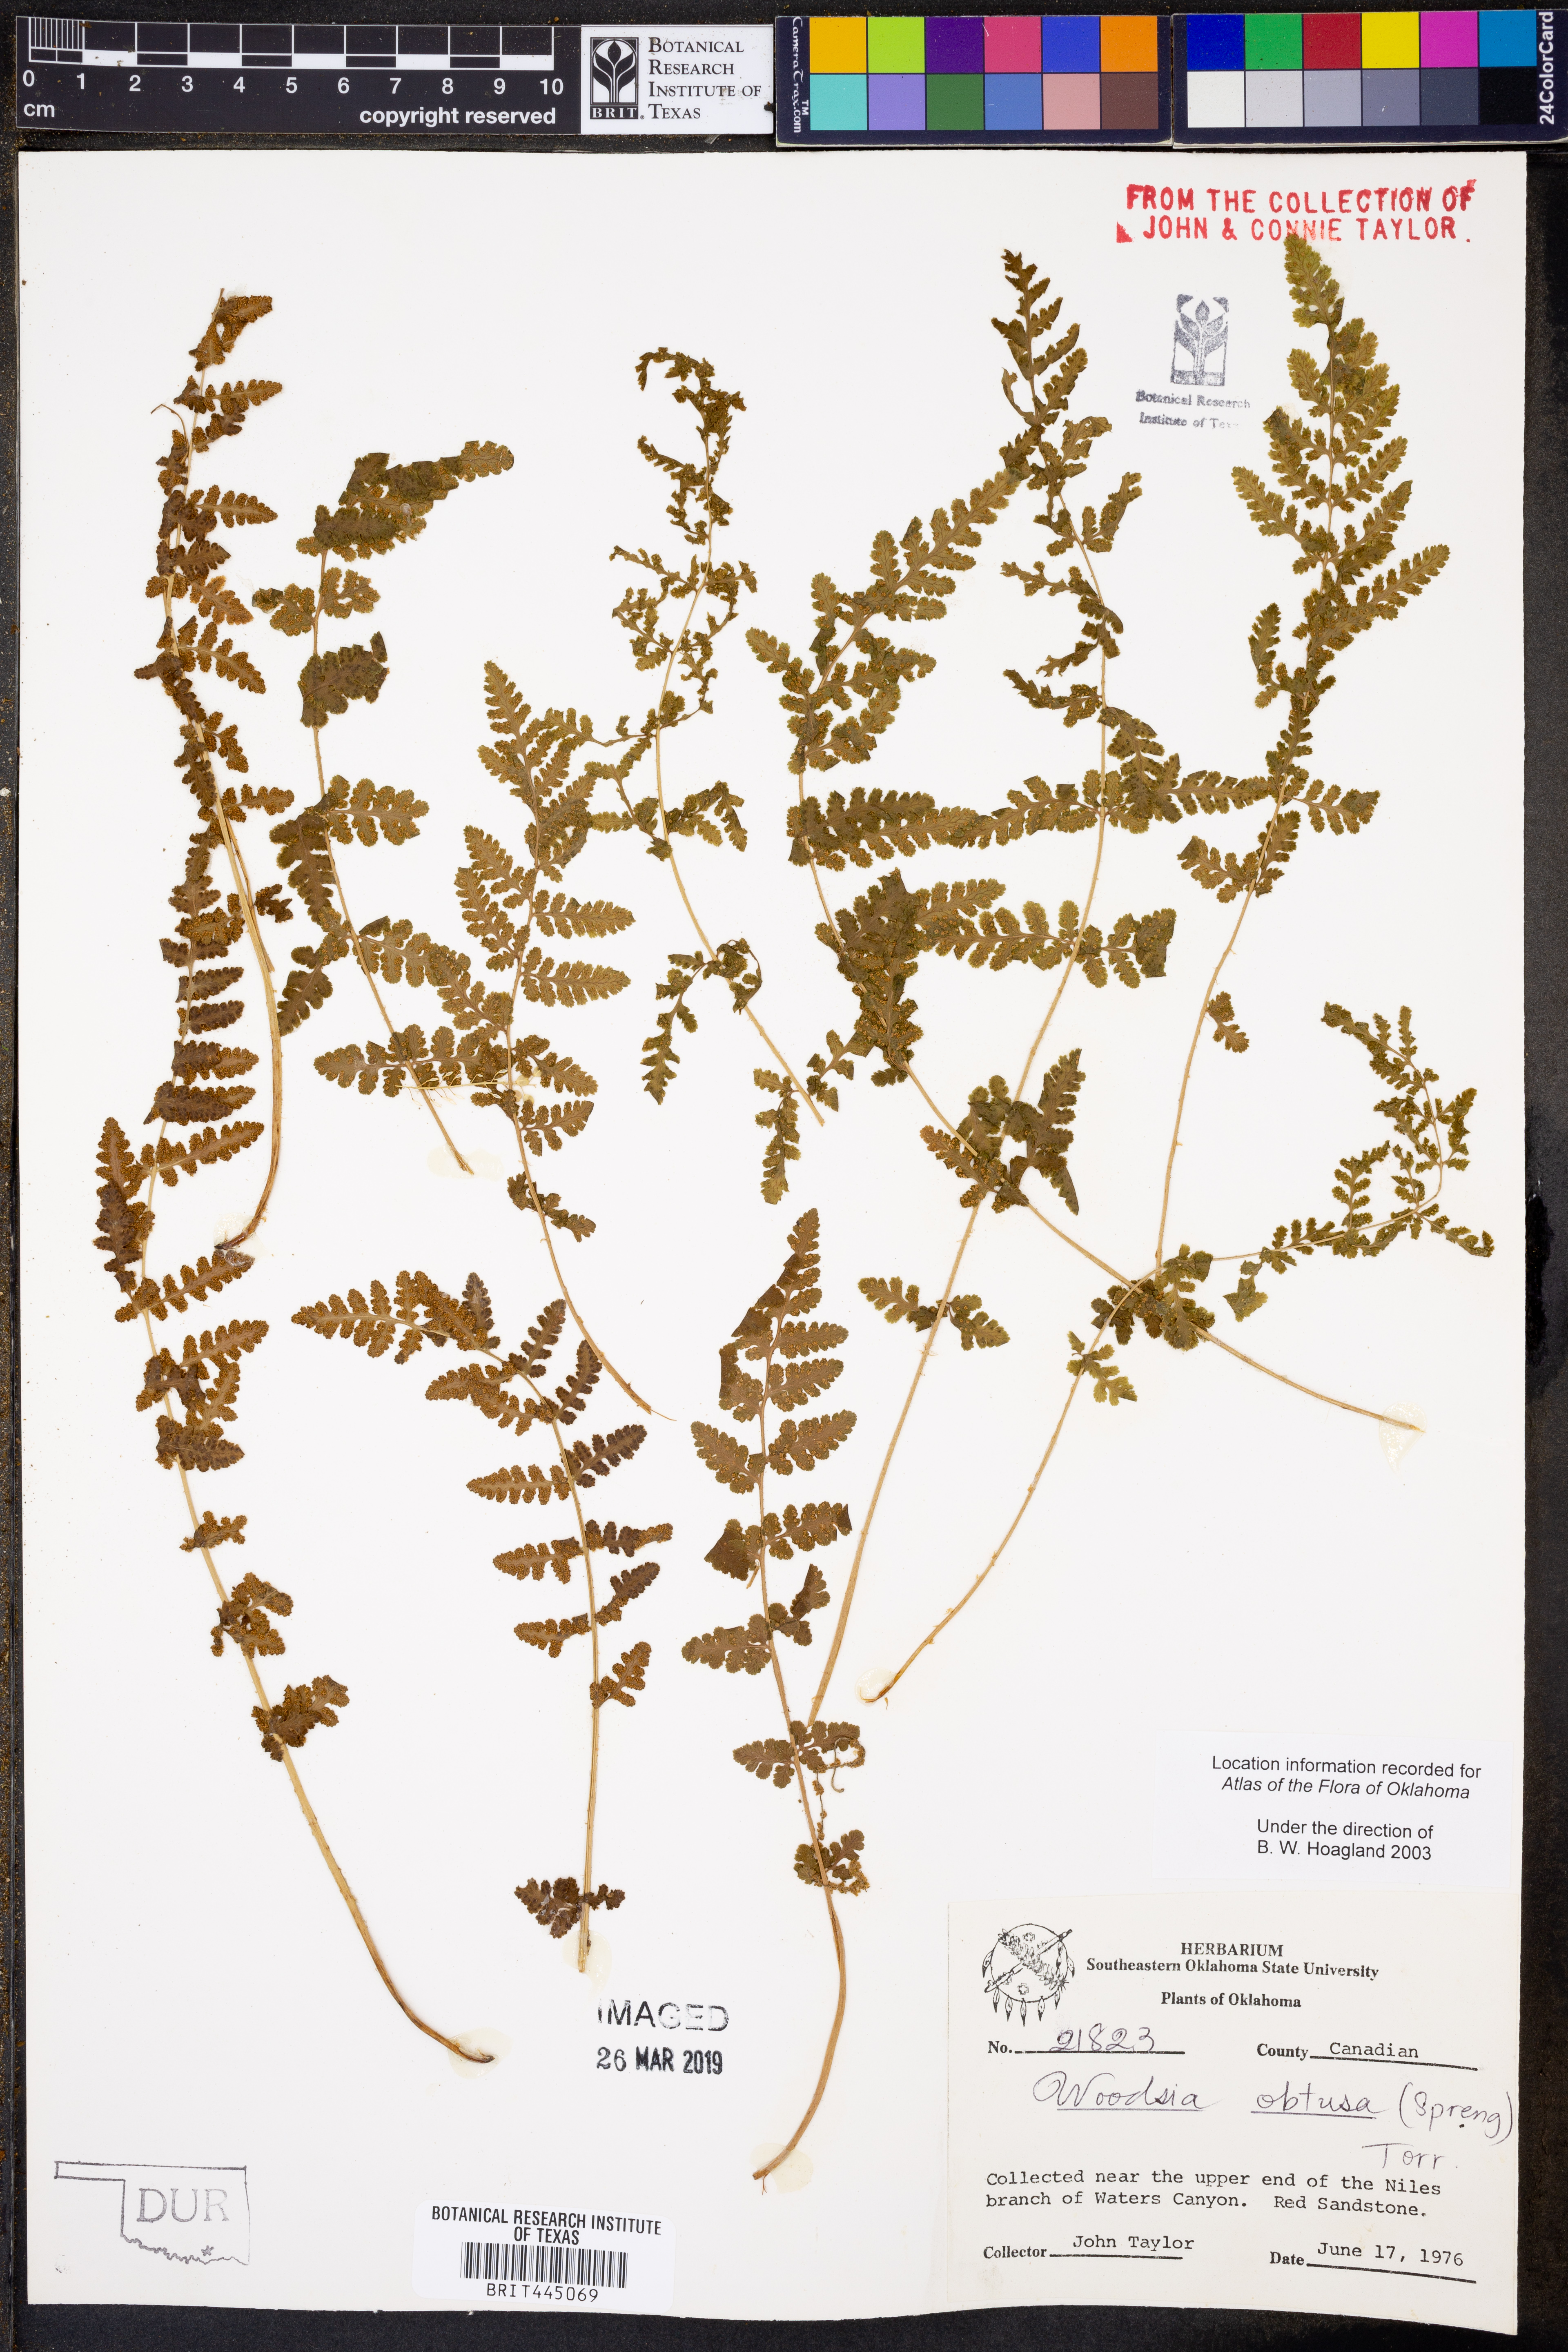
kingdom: Plantae
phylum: Tracheophyta
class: Polypodiopsida
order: Polypodiales
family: Woodsiaceae
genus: Physematium
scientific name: Physematium obtusum
